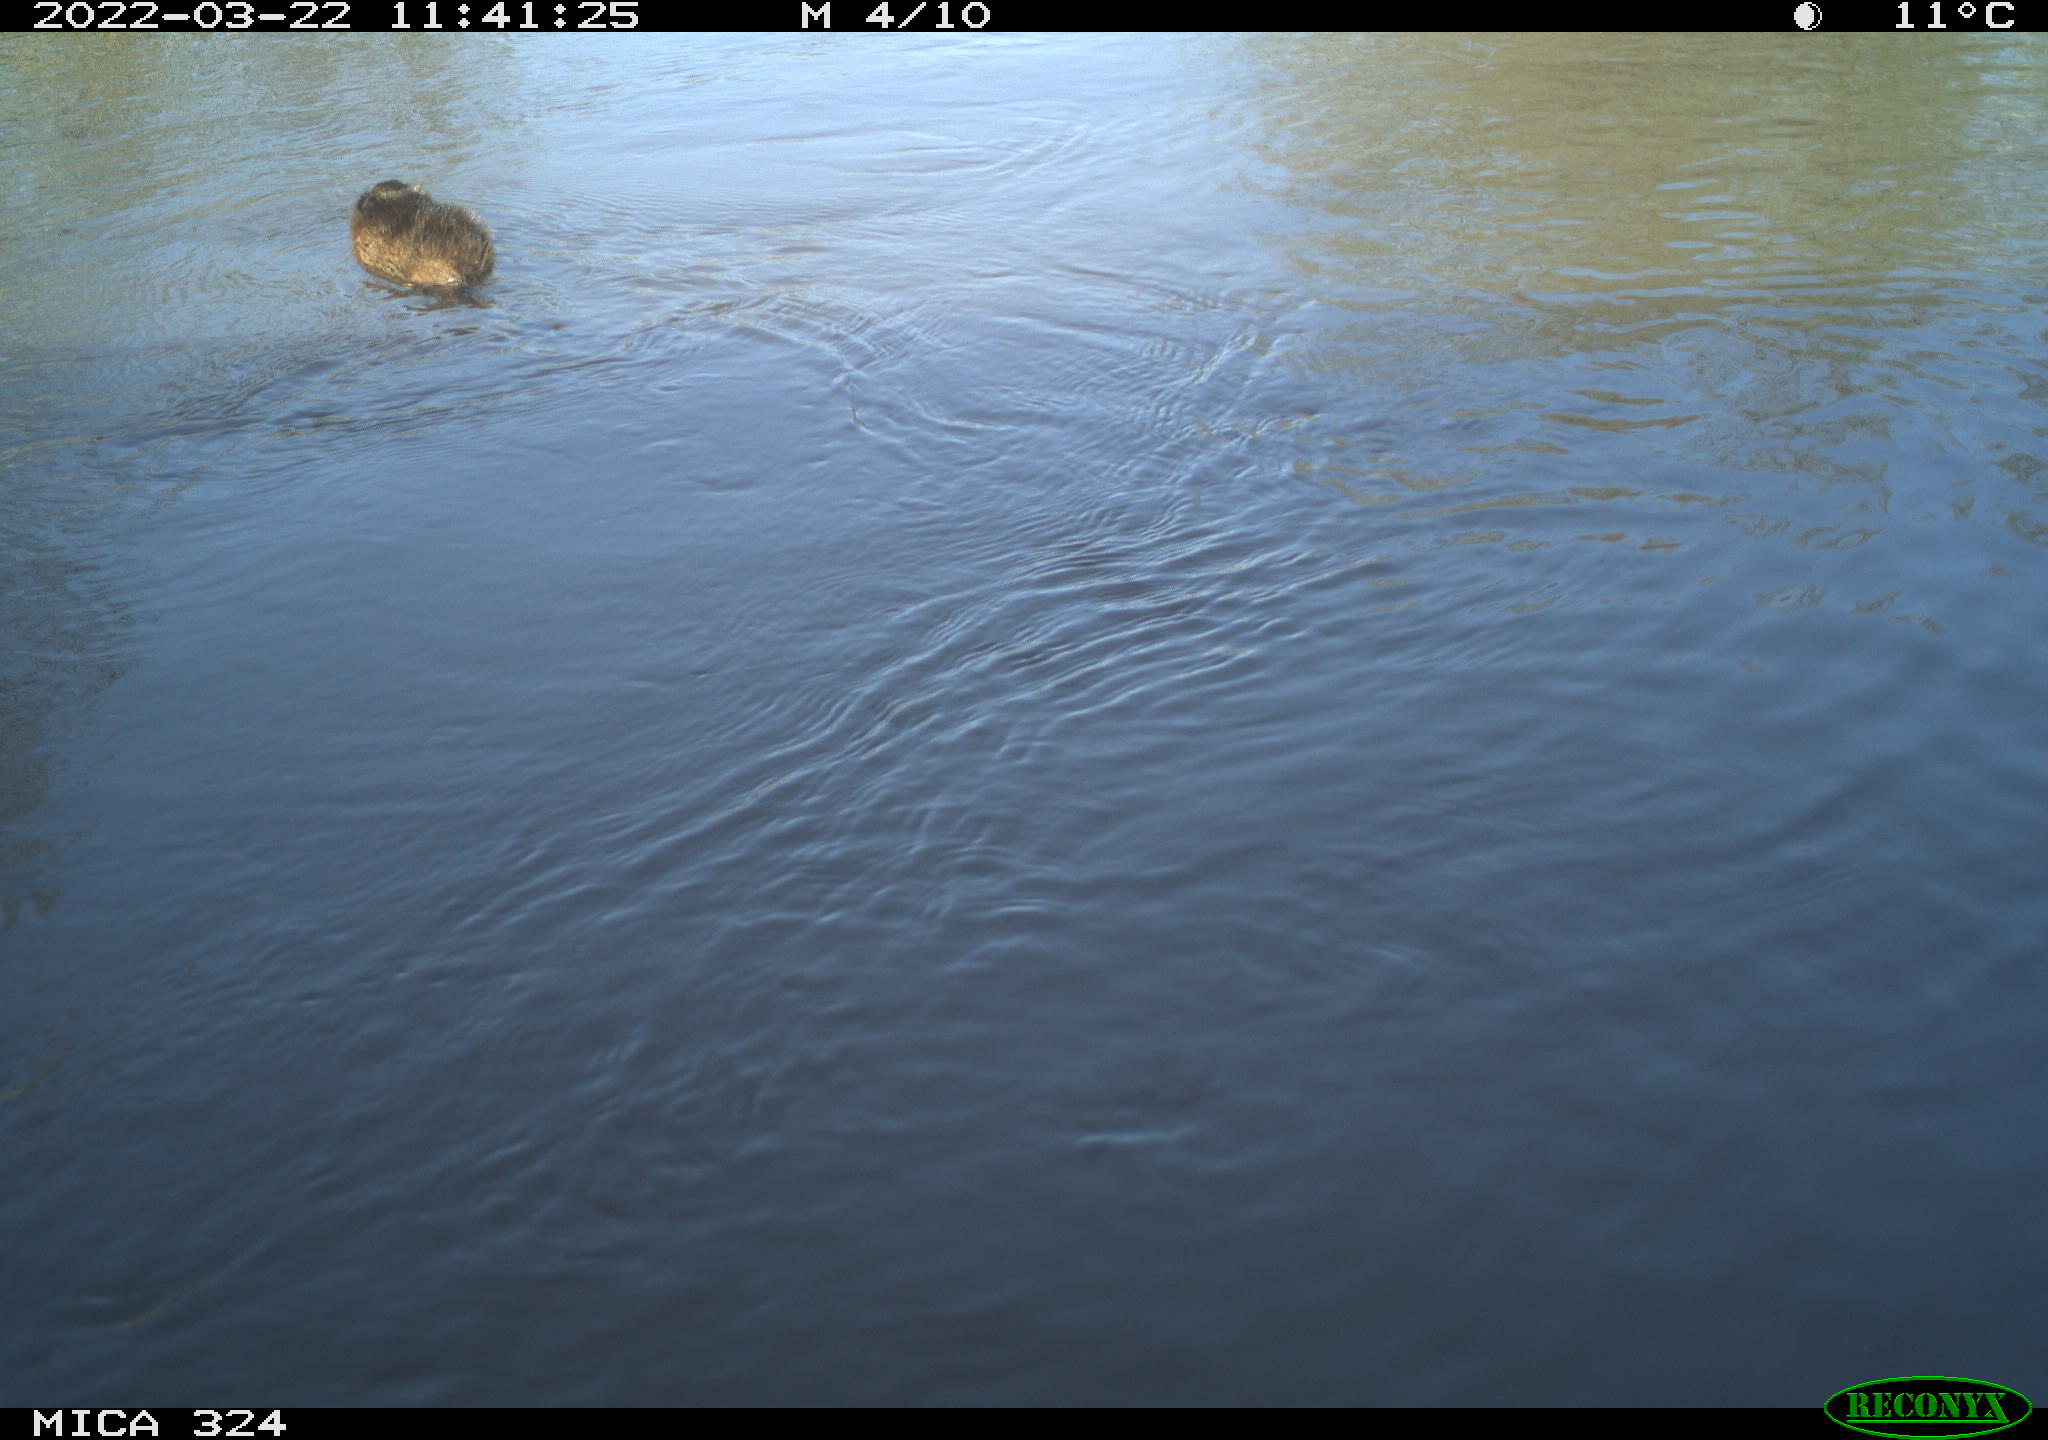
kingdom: Animalia
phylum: Chordata
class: Mammalia
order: Rodentia
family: Cricetidae
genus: Ondatra
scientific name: Ondatra zibethicus
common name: Muskrat
